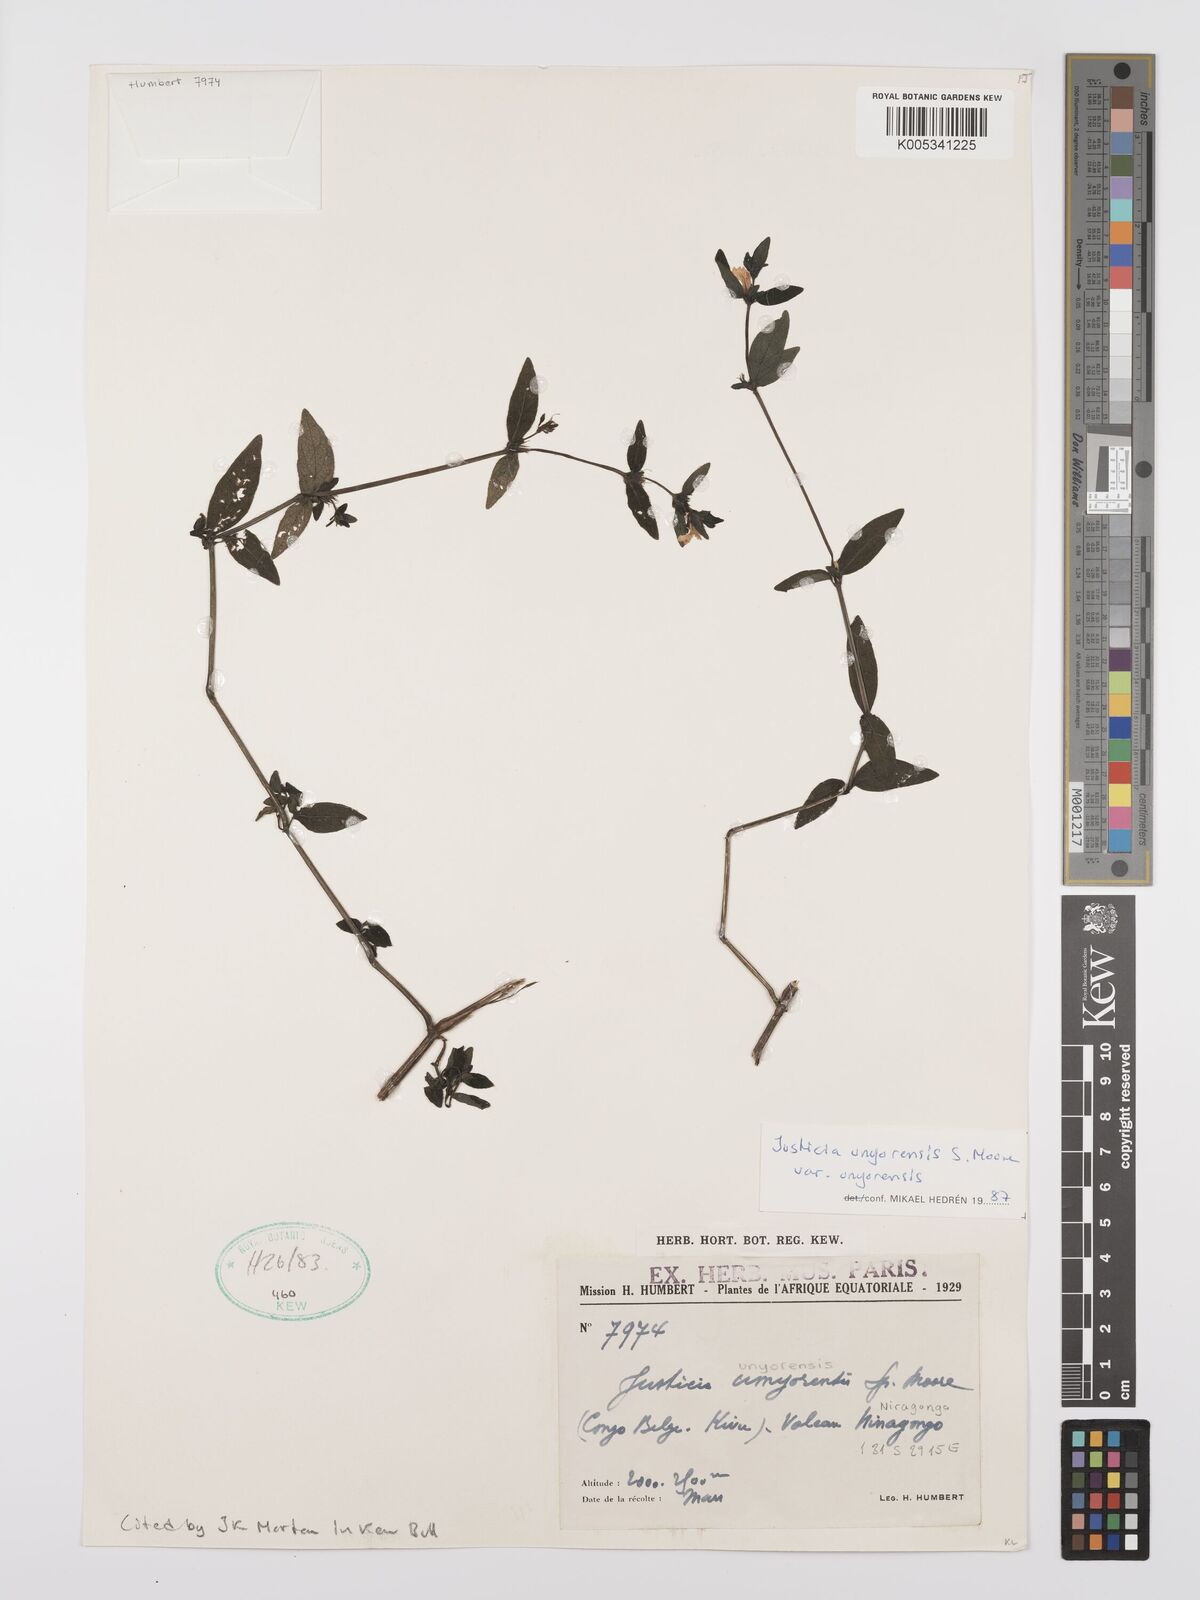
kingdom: Plantae
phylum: Tracheophyta
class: Magnoliopsida
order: Lamiales
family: Acanthaceae
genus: Justicia
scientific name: Justicia unyorensis
